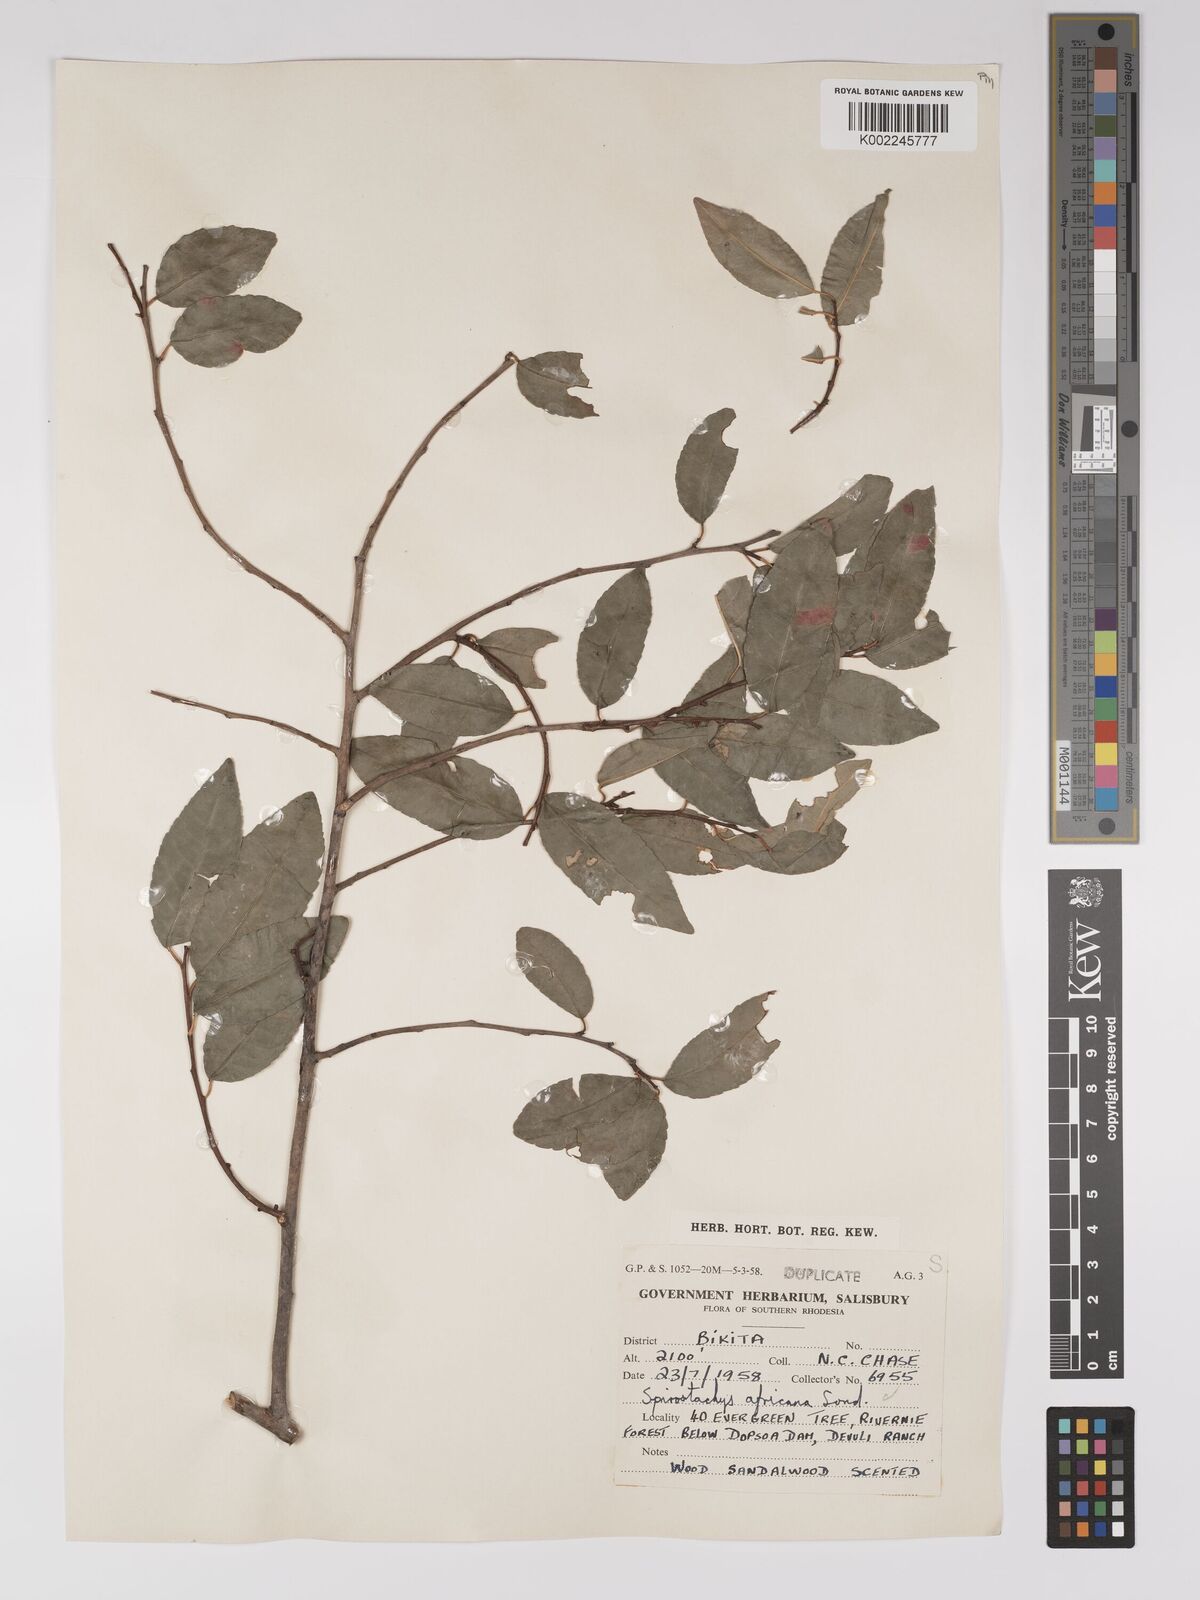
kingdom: Plantae
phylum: Tracheophyta
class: Magnoliopsida
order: Malpighiales
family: Euphorbiaceae
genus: Spirostachys
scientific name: Spirostachys africana
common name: Tamboti
